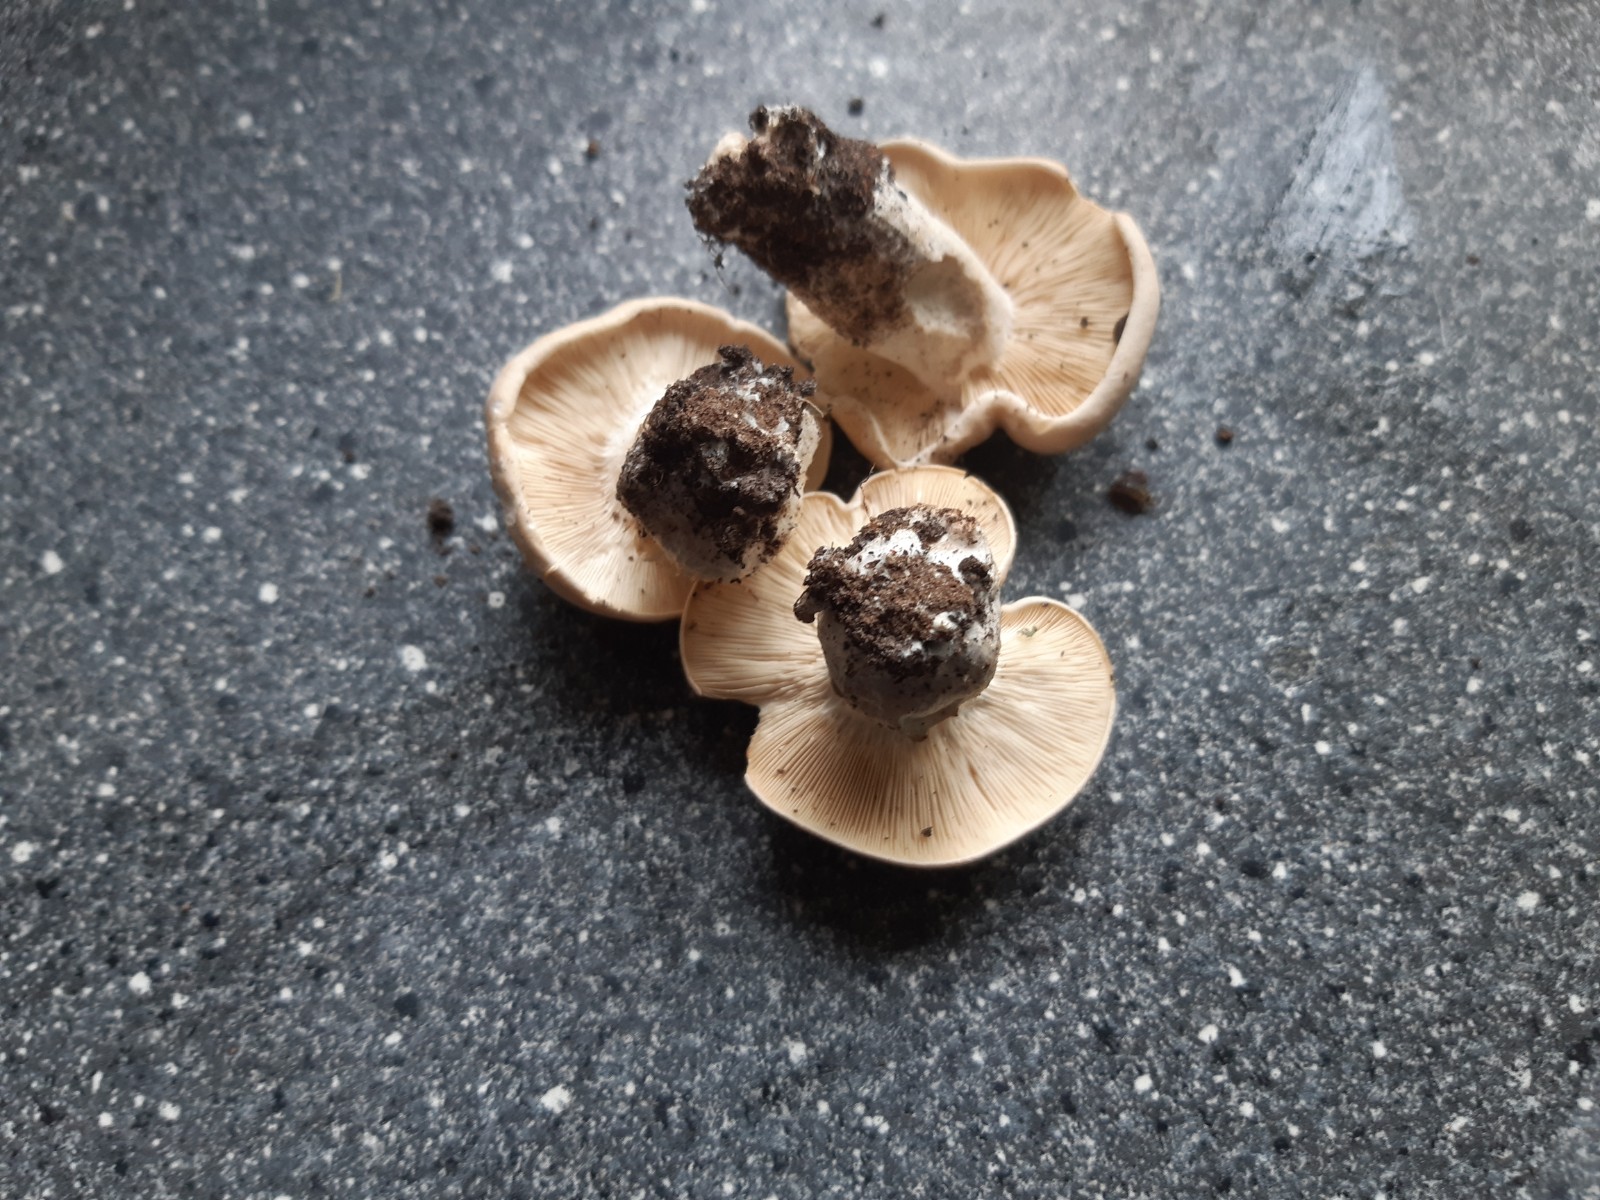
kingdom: Fungi
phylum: Basidiomycota
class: Agaricomycetes
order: Agaricales
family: Lyophyllaceae
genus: Calocybe
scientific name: Calocybe gambosa
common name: vårmusseron
